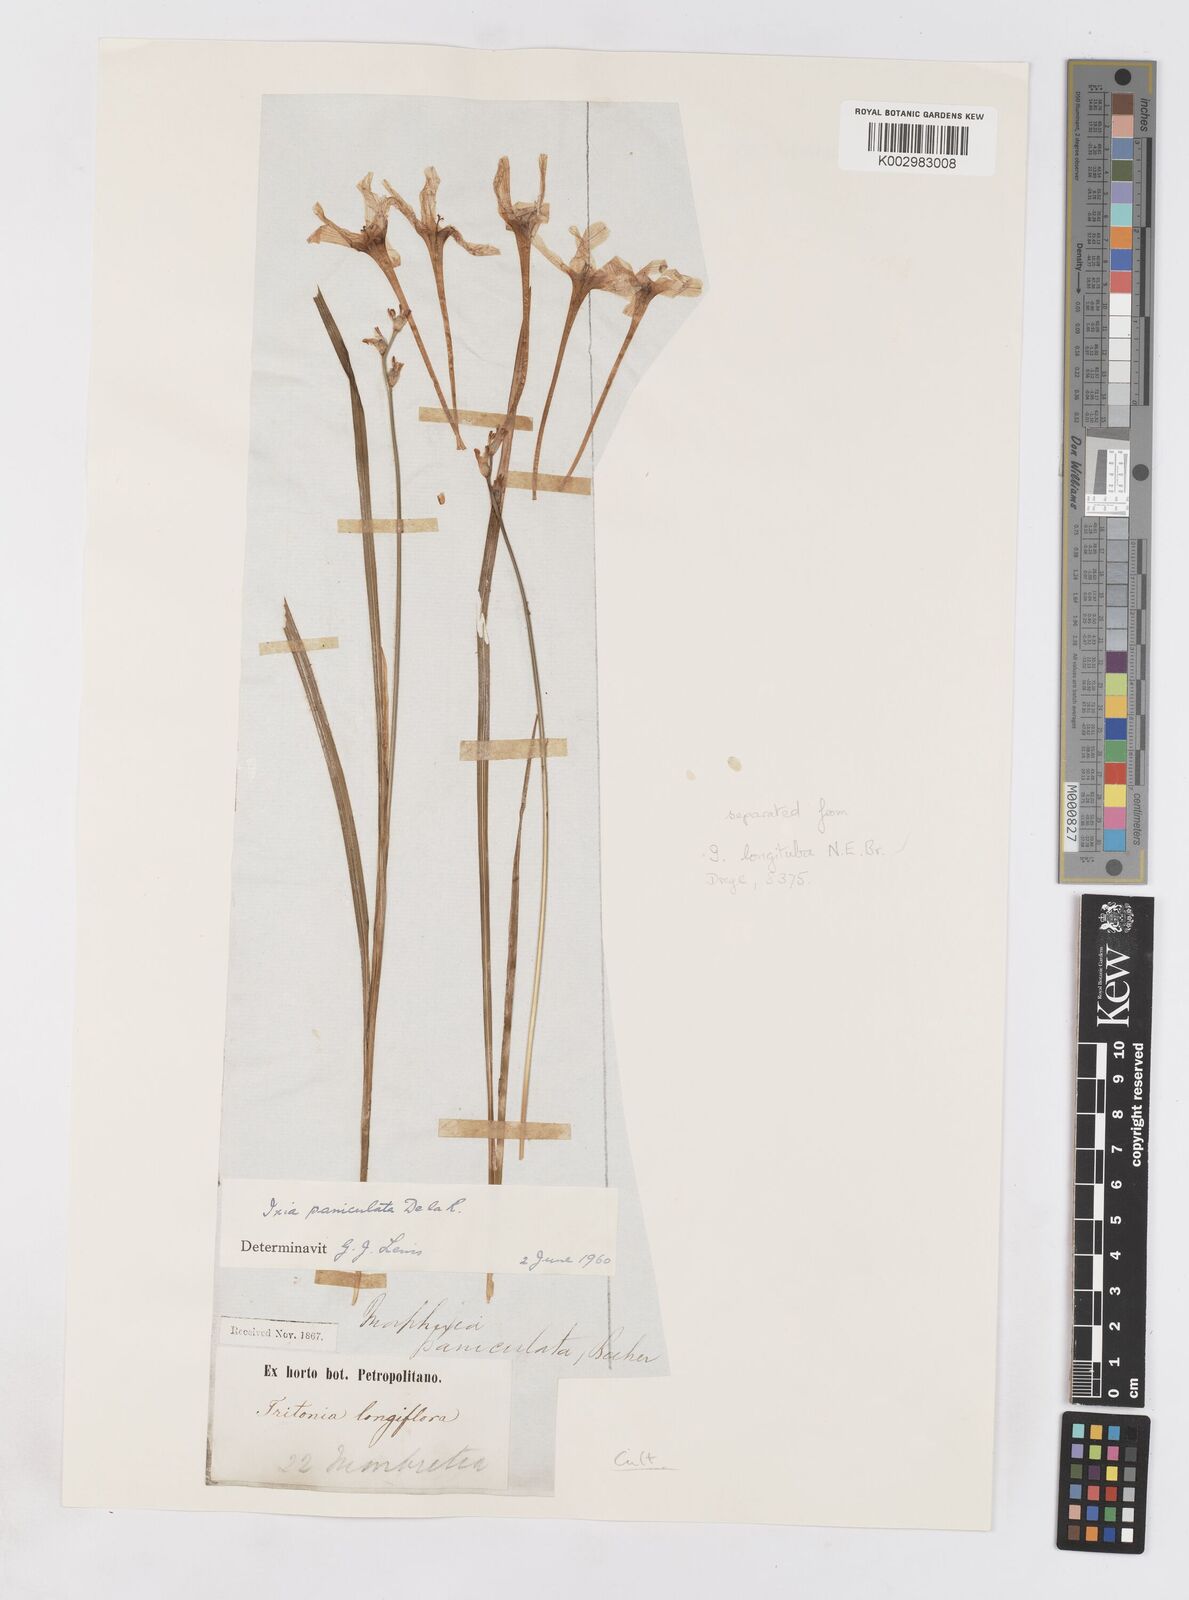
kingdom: Plantae
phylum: Tracheophyta
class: Liliopsida
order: Asparagales
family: Iridaceae
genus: Ixia
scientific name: Ixia paniculata
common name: Tubular corn-lily
